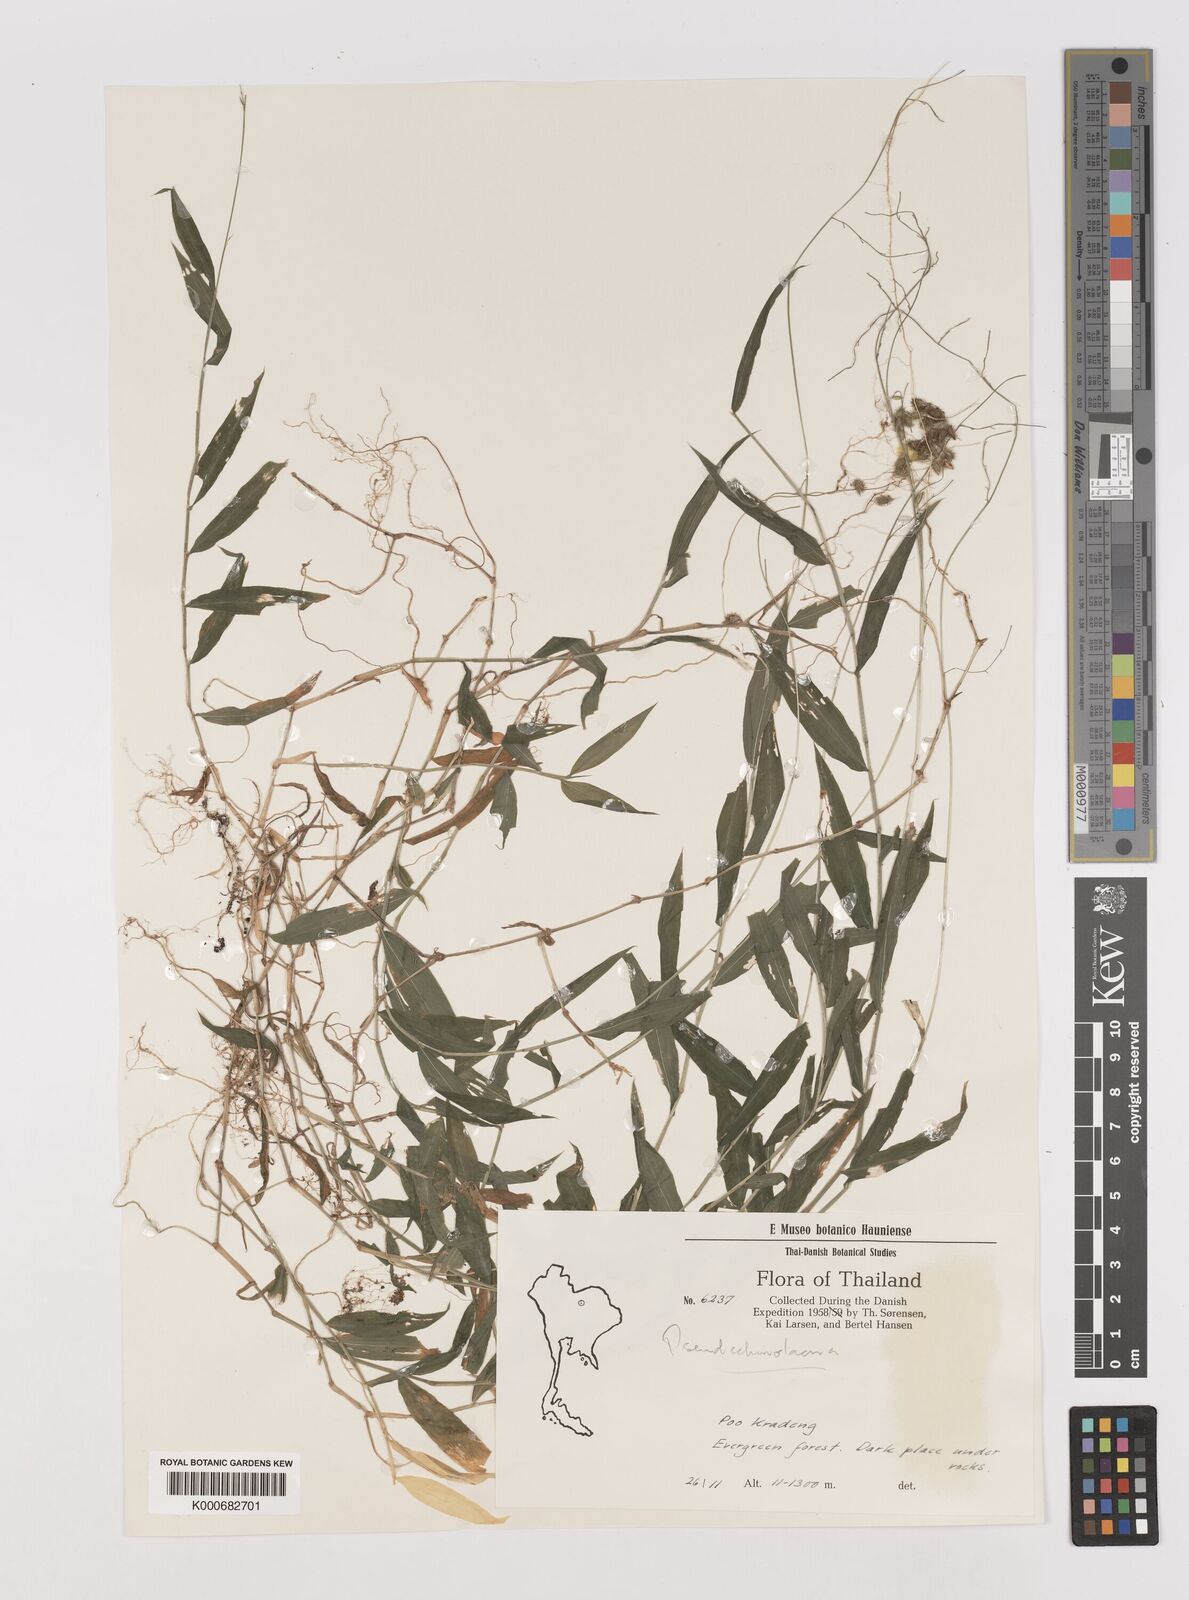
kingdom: Plantae
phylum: Tracheophyta
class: Liliopsida
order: Poales
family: Poaceae
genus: Pseudechinolaena
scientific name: Pseudechinolaena polystachya
